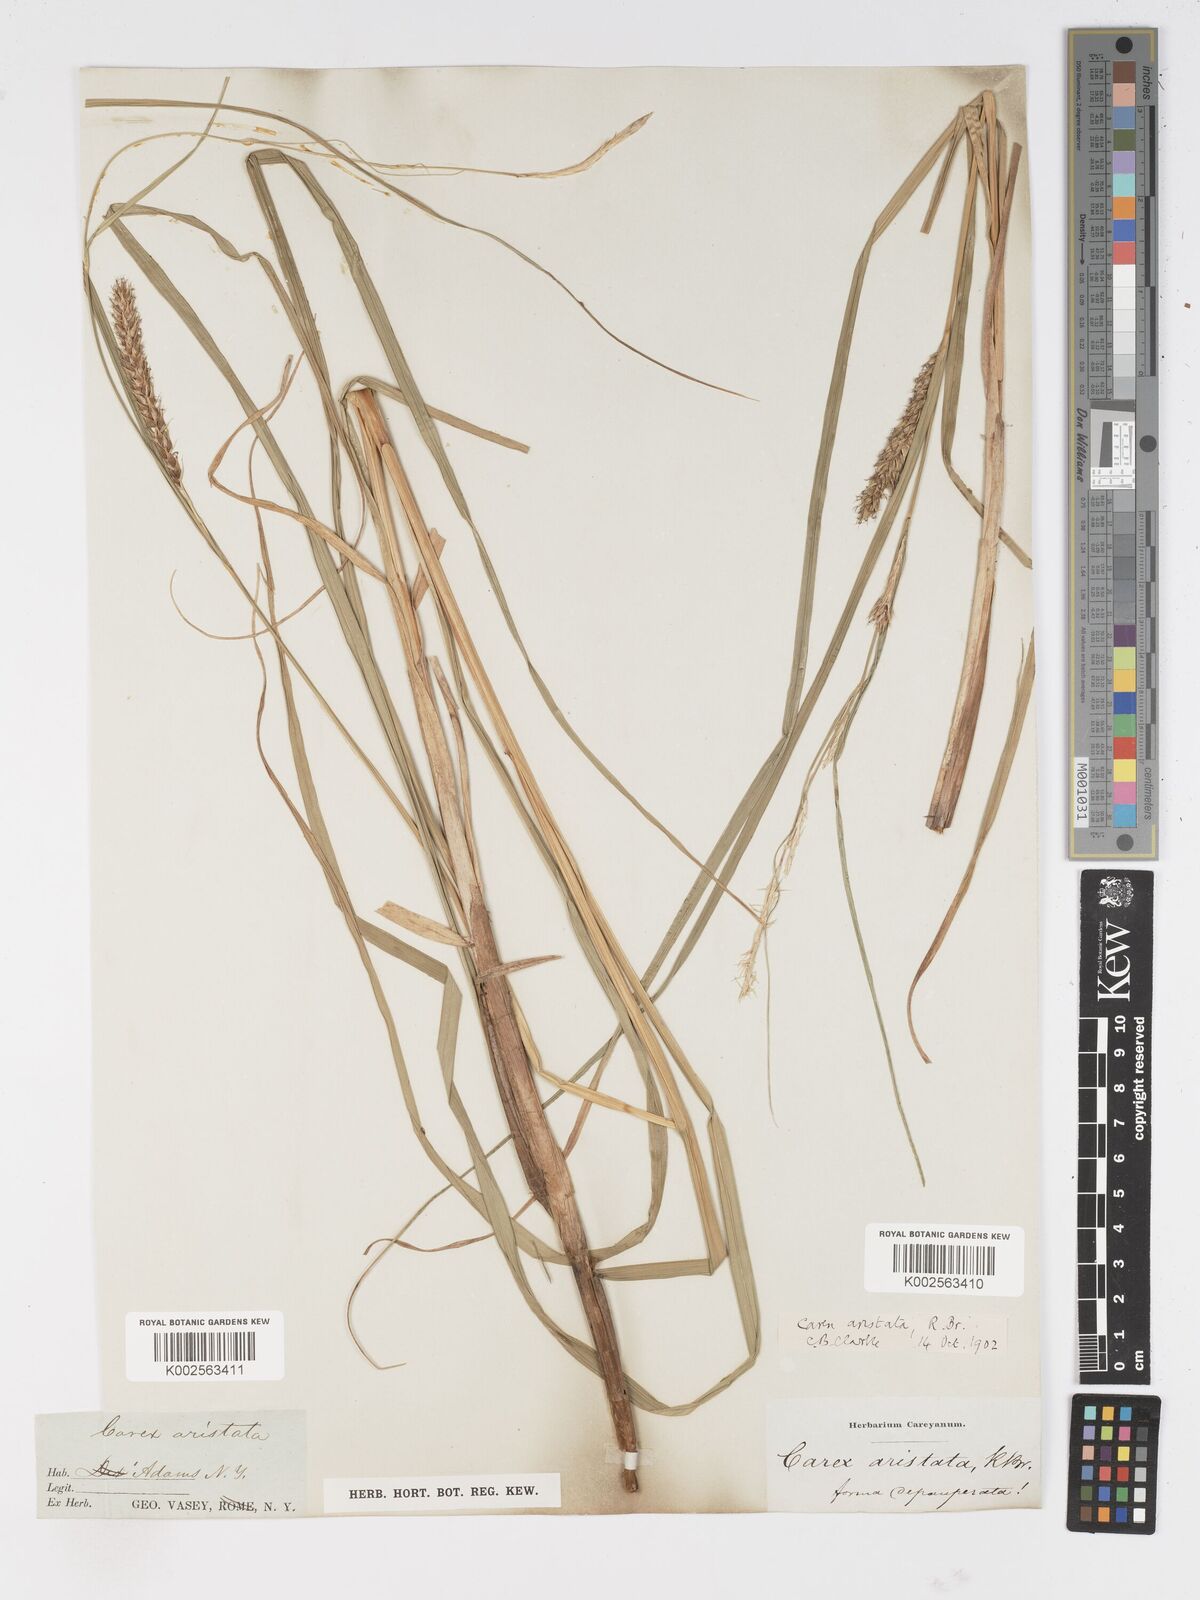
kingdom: Plantae
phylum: Tracheophyta
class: Liliopsida
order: Poales
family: Cyperaceae
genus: Carex
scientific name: Carex atherodes
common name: Wheat sedge
